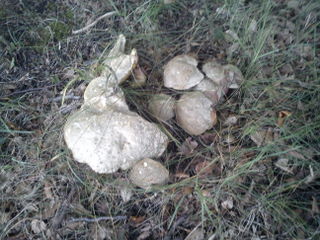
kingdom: Fungi
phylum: Basidiomycota
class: Agaricomycetes
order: Boletales
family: Boletaceae
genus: Rubroboletus
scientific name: Rubroboletus satanas
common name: Satans rørhat
